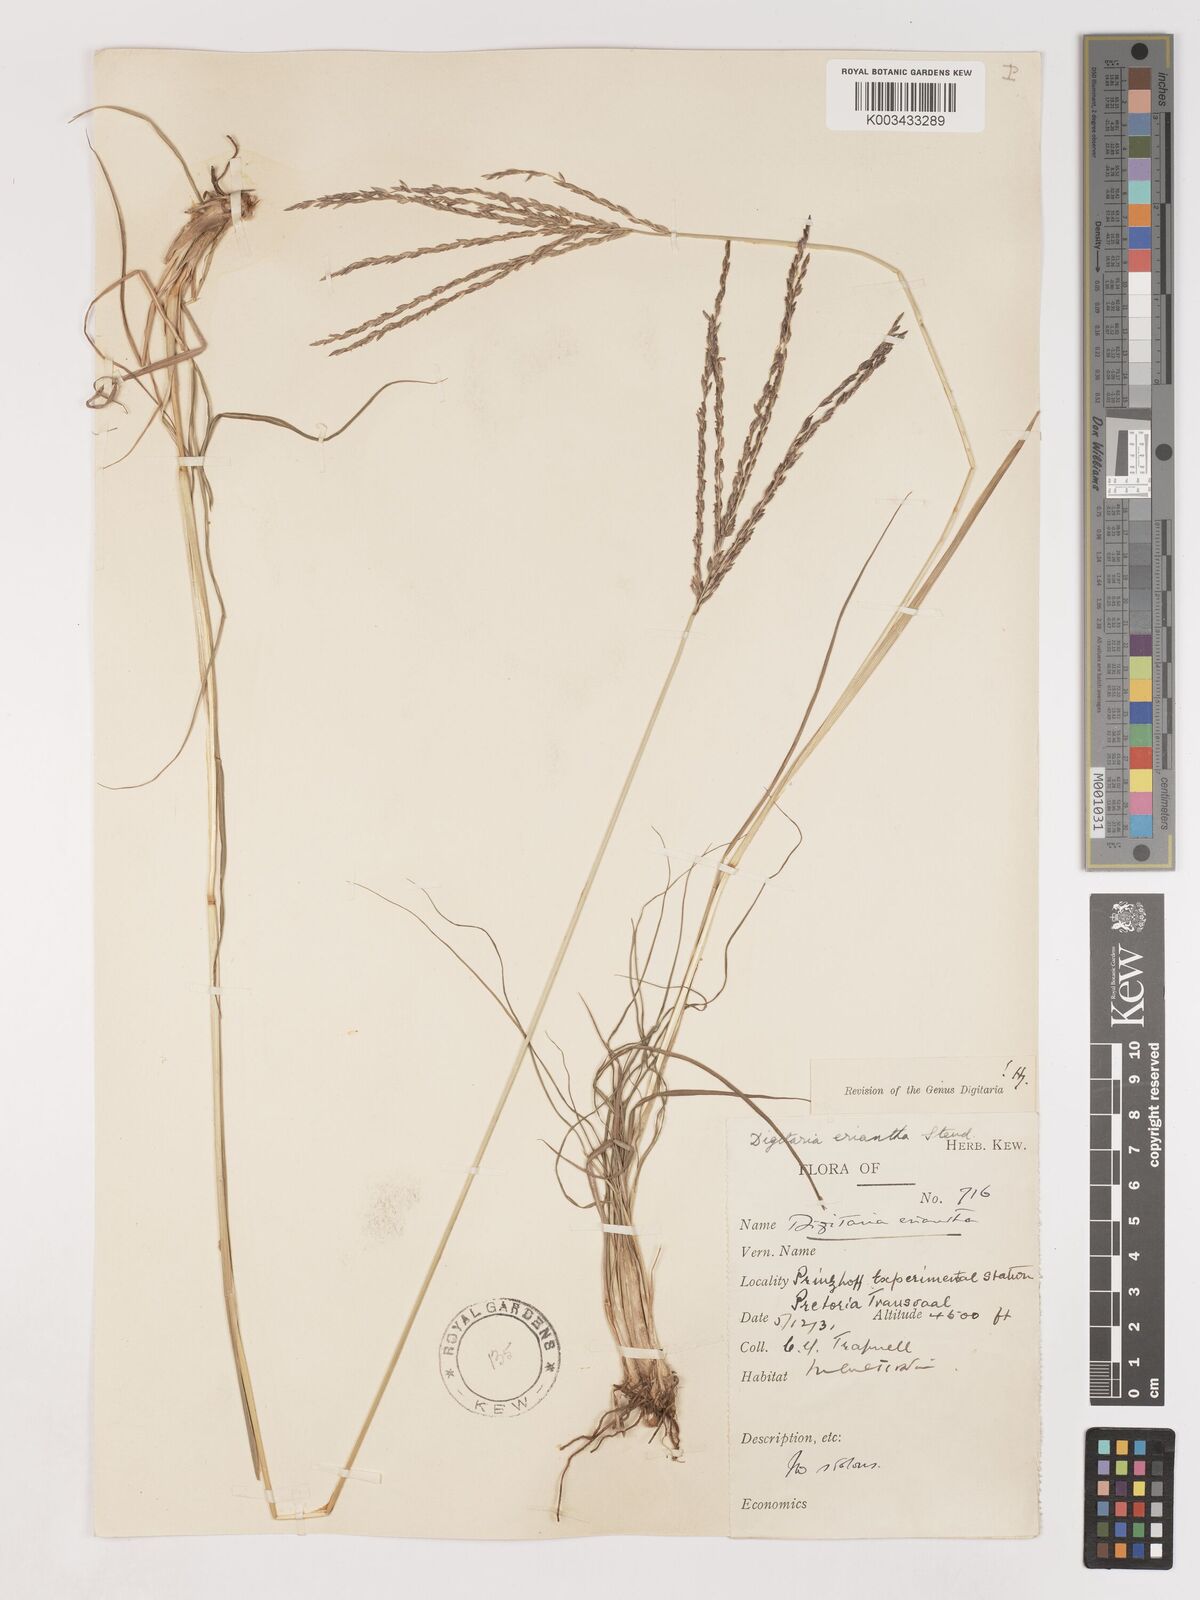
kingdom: Plantae
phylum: Tracheophyta
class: Liliopsida
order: Poales
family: Poaceae
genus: Digitaria
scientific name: Digitaria eriantha
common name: Digitgrass
